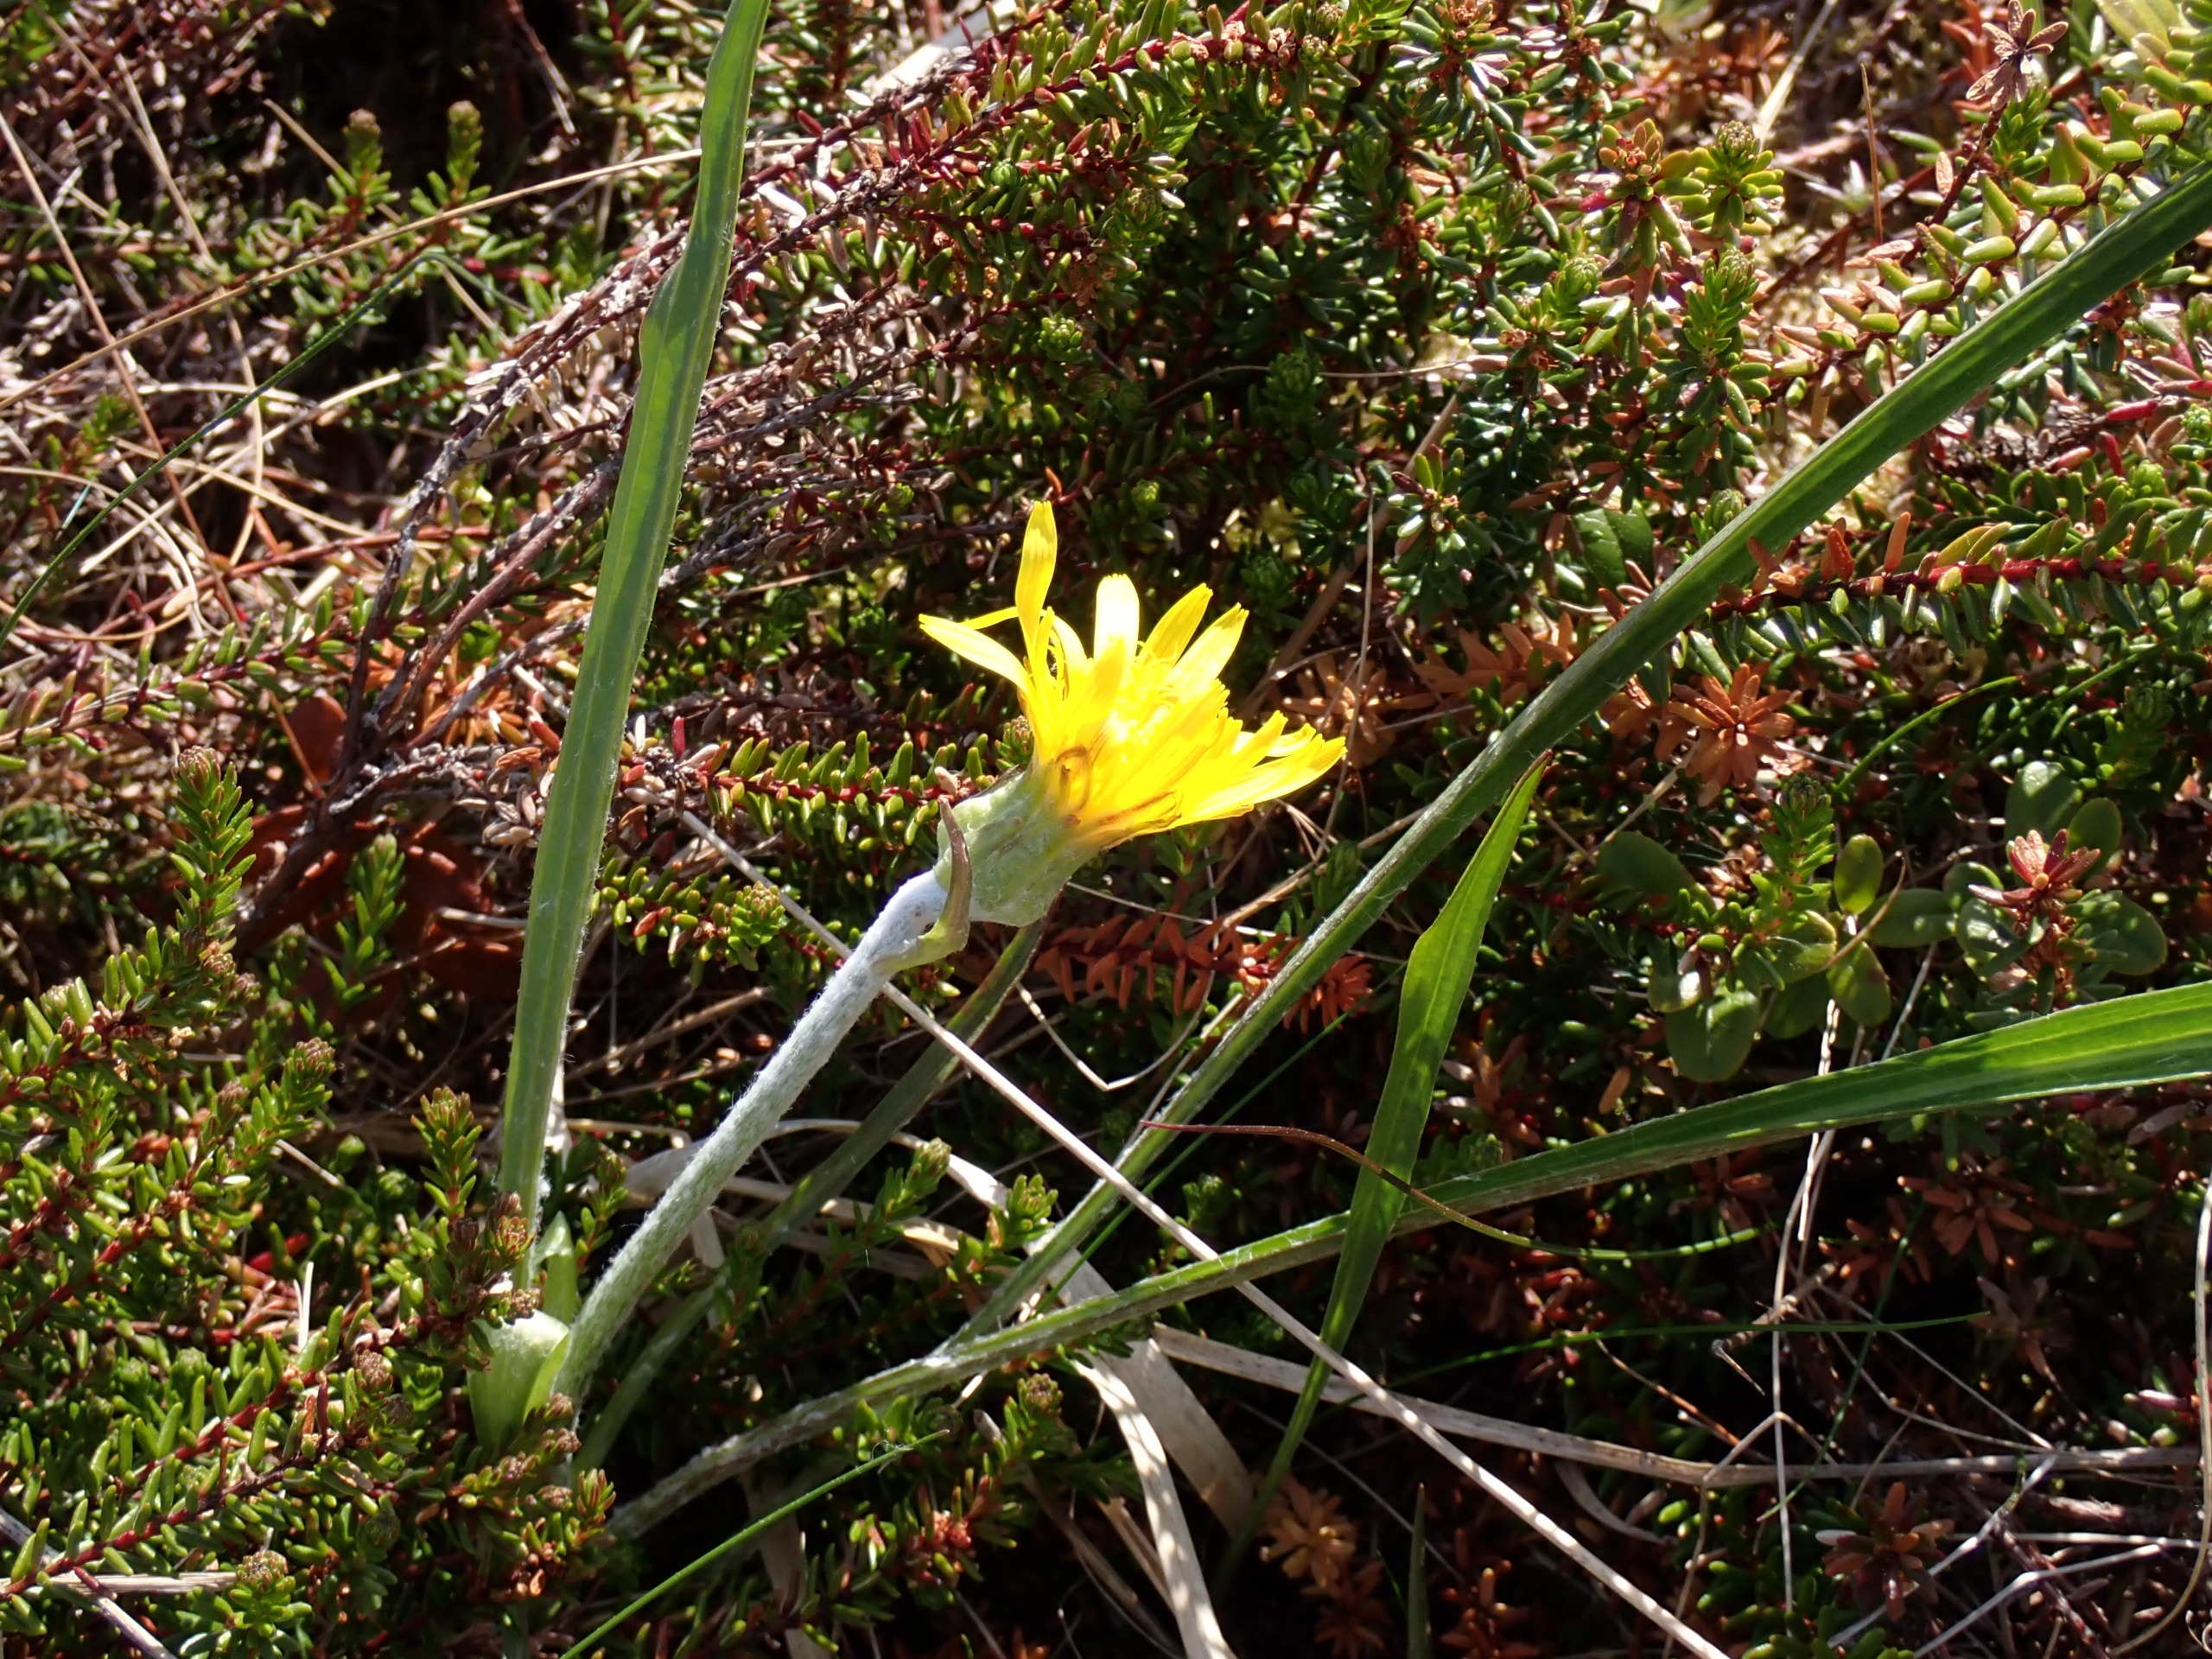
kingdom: Plantae
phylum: Tracheophyta
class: Magnoliopsida
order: Asterales
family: Asteraceae
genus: Scorzonera
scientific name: Scorzonera humilis
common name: Lav skorsoner
